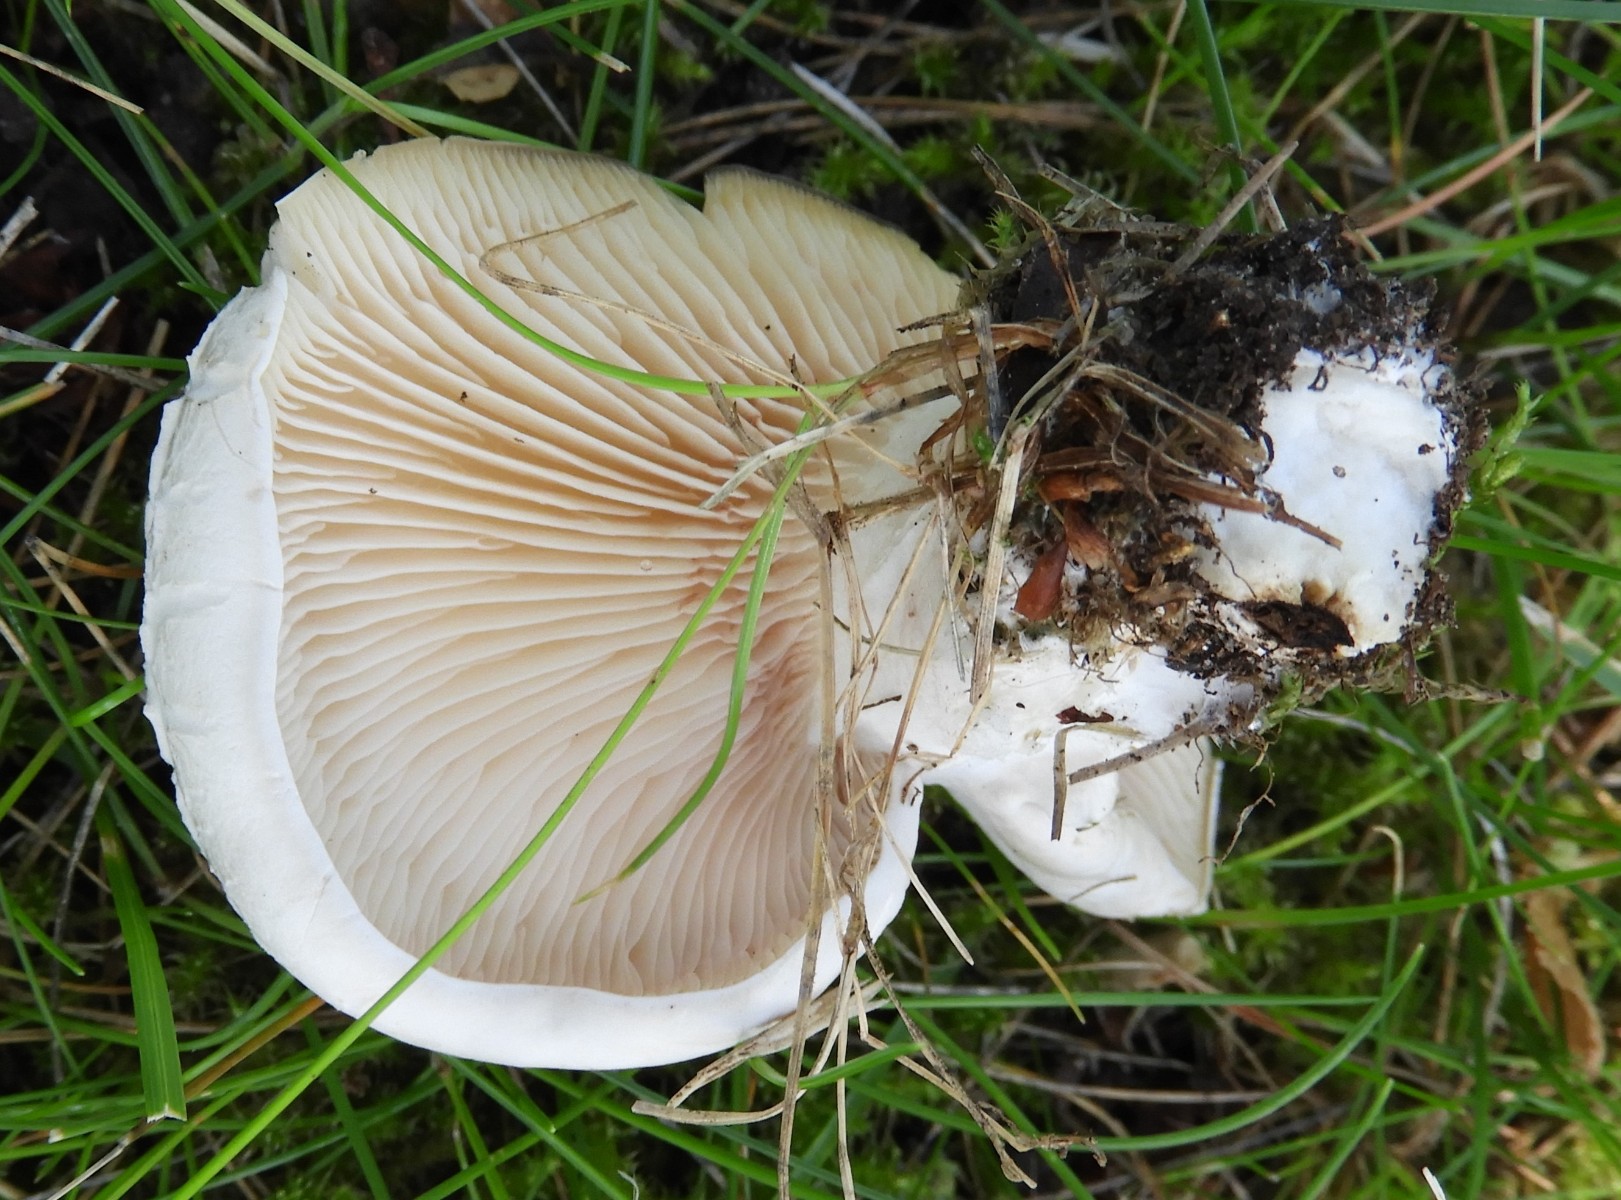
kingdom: Fungi
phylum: Basidiomycota
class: Agaricomycetes
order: Agaricales
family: Entolomataceae
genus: Clitopilus
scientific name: Clitopilus prunulus
